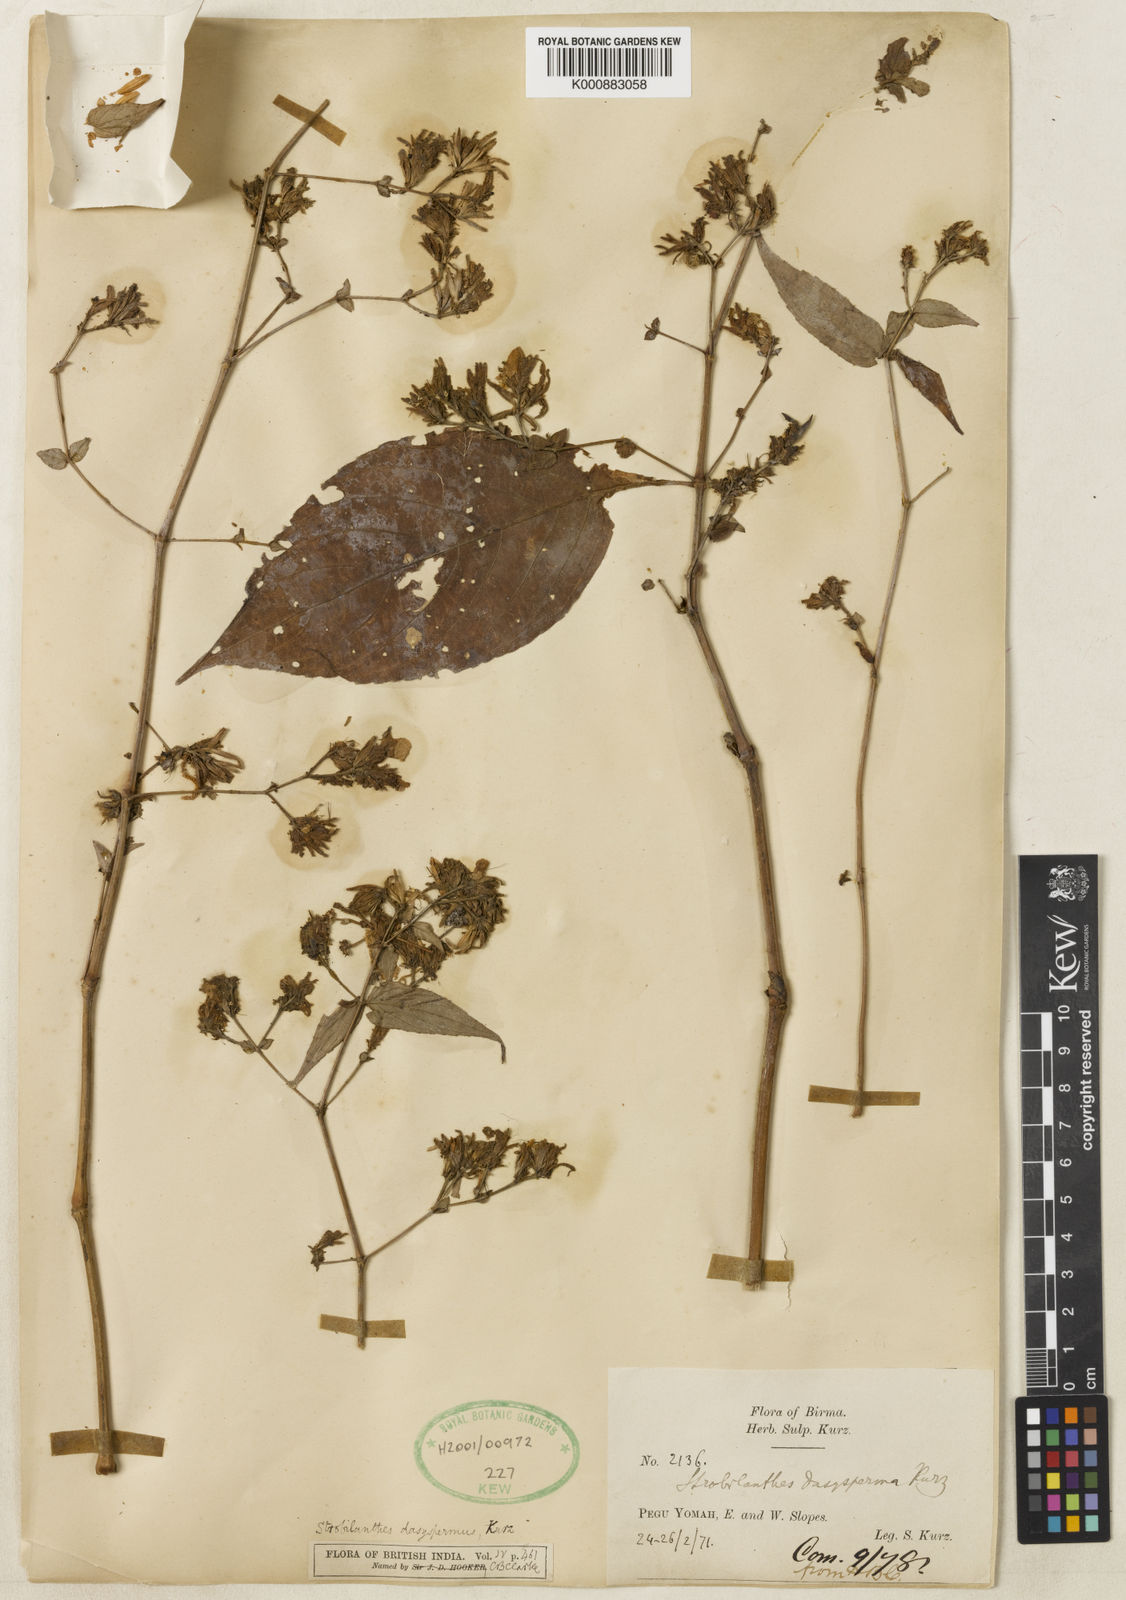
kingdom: Plantae
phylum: Tracheophyta
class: Magnoliopsida
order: Lamiales
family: Acanthaceae
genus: Strobilanthes
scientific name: Strobilanthes dasysperma
